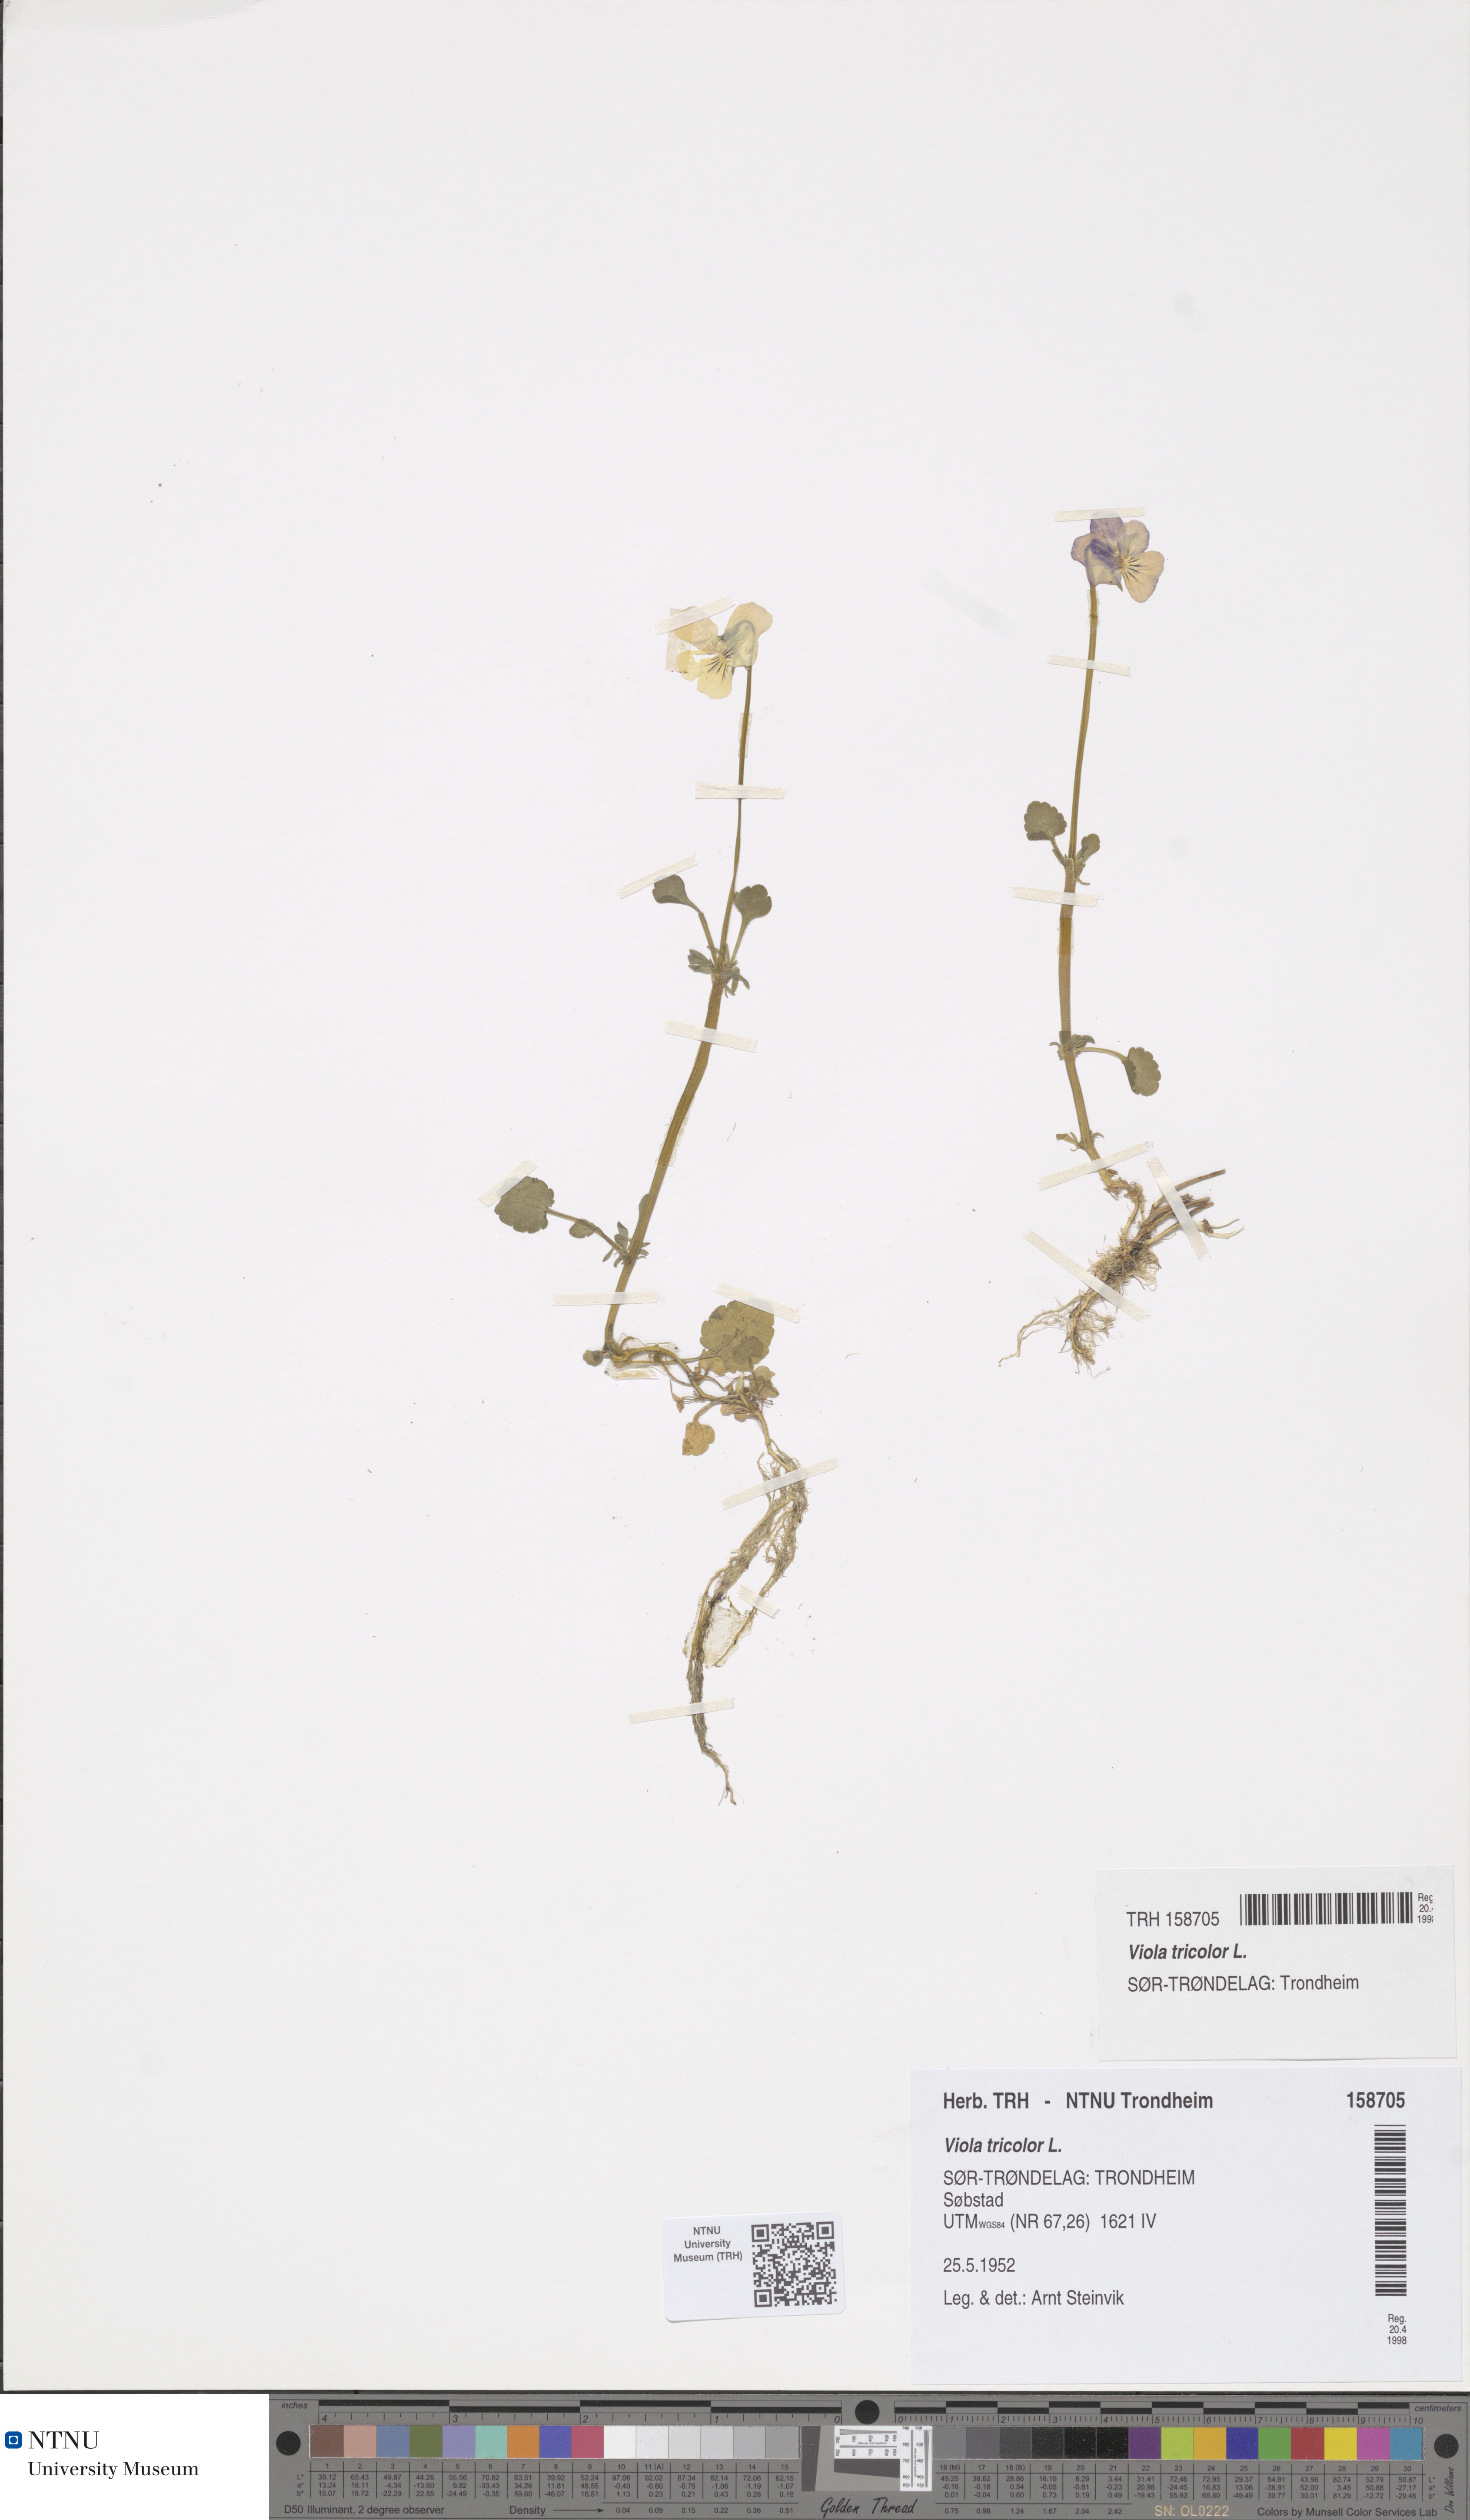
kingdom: Plantae
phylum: Tracheophyta
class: Magnoliopsida
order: Malpighiales
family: Violaceae
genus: Viola
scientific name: Viola tricolor
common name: Pansy
